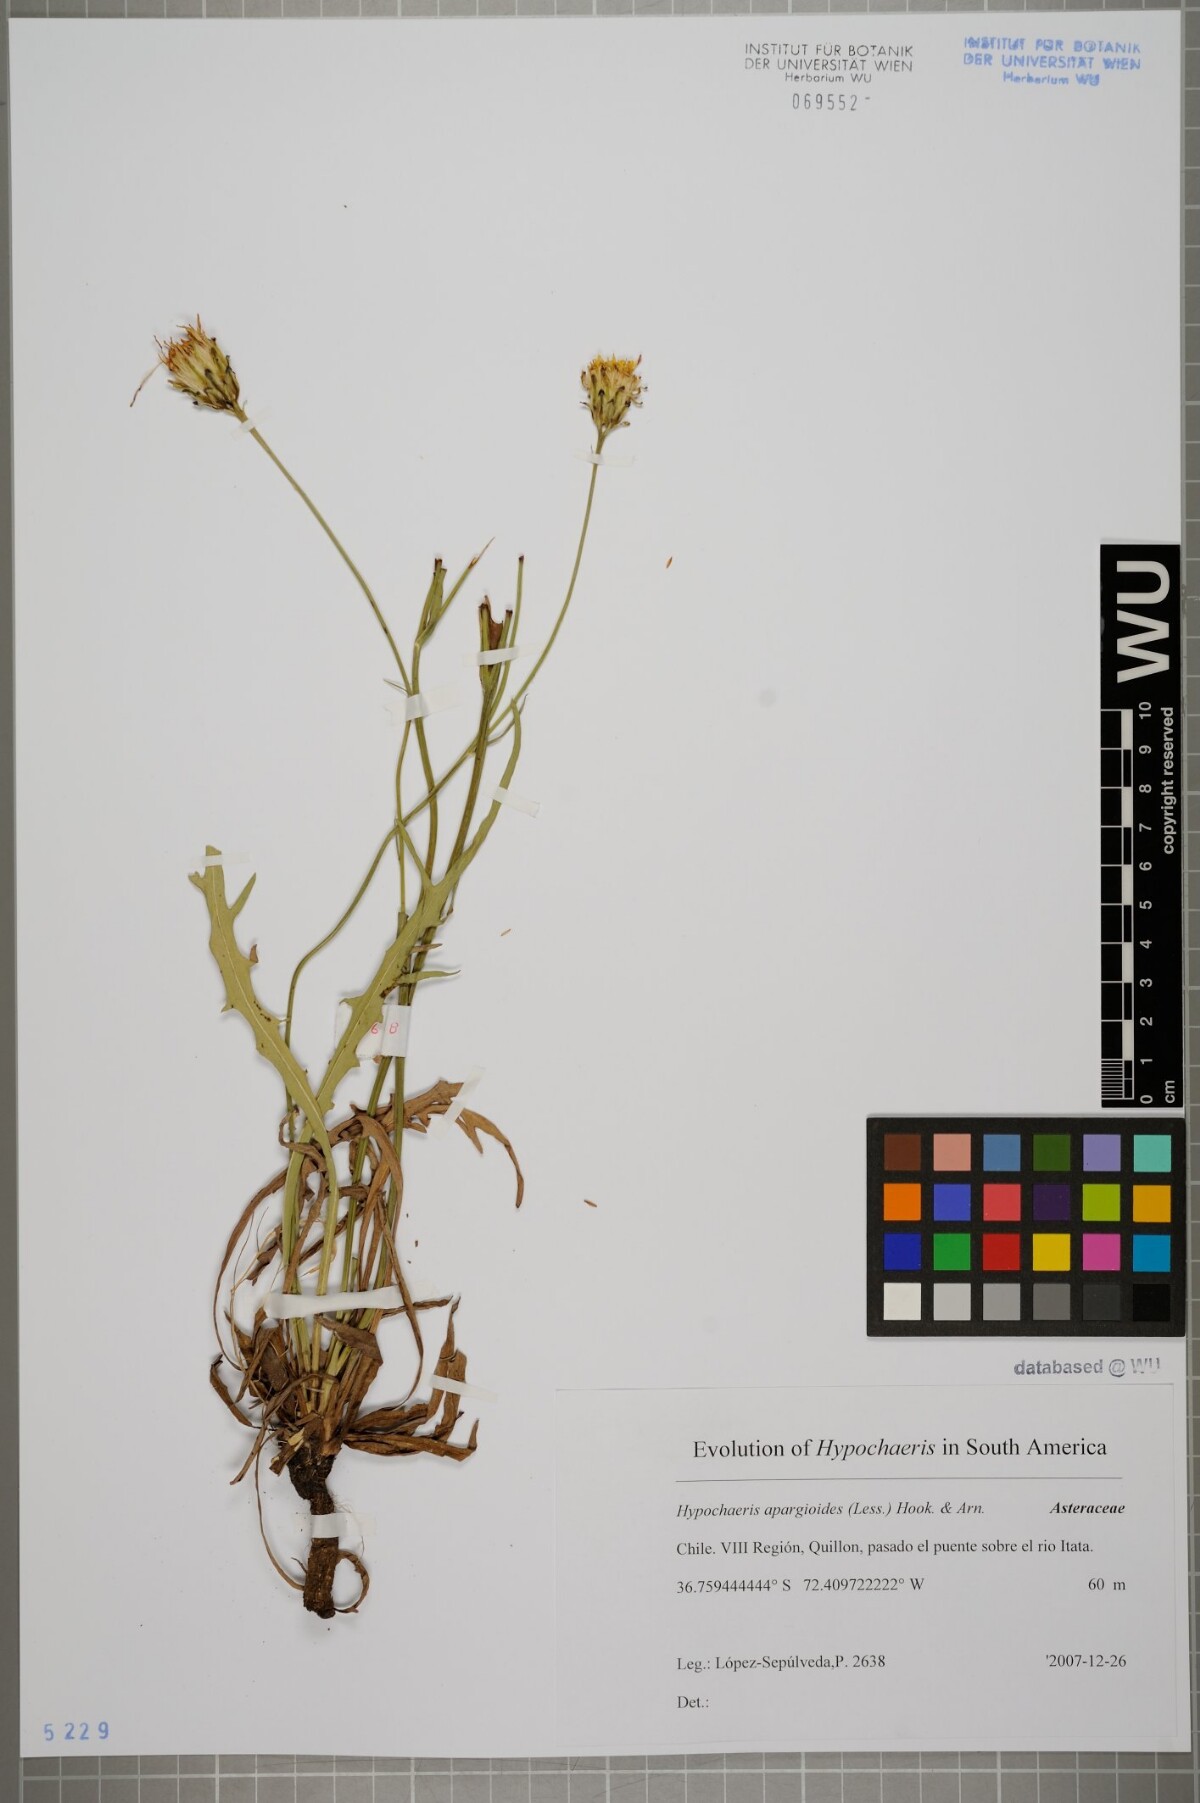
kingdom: Plantae
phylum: Tracheophyta
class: Magnoliopsida
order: Asterales
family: Asteraceae
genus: Hypochaeris
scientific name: Hypochaeris apargioides
